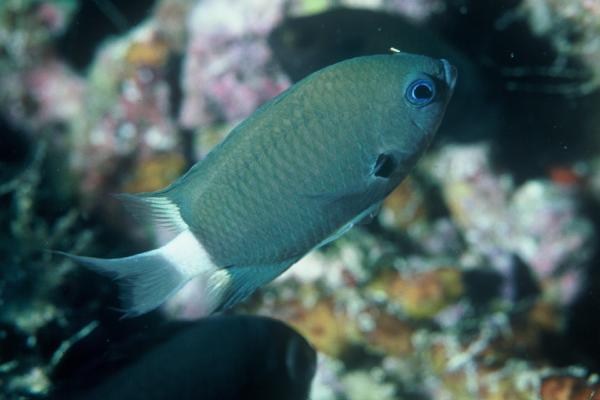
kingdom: Animalia
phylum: Chordata
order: Perciformes
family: Pomacentridae
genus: Chromis
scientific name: Chromis delta
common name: Deep reef chromis
